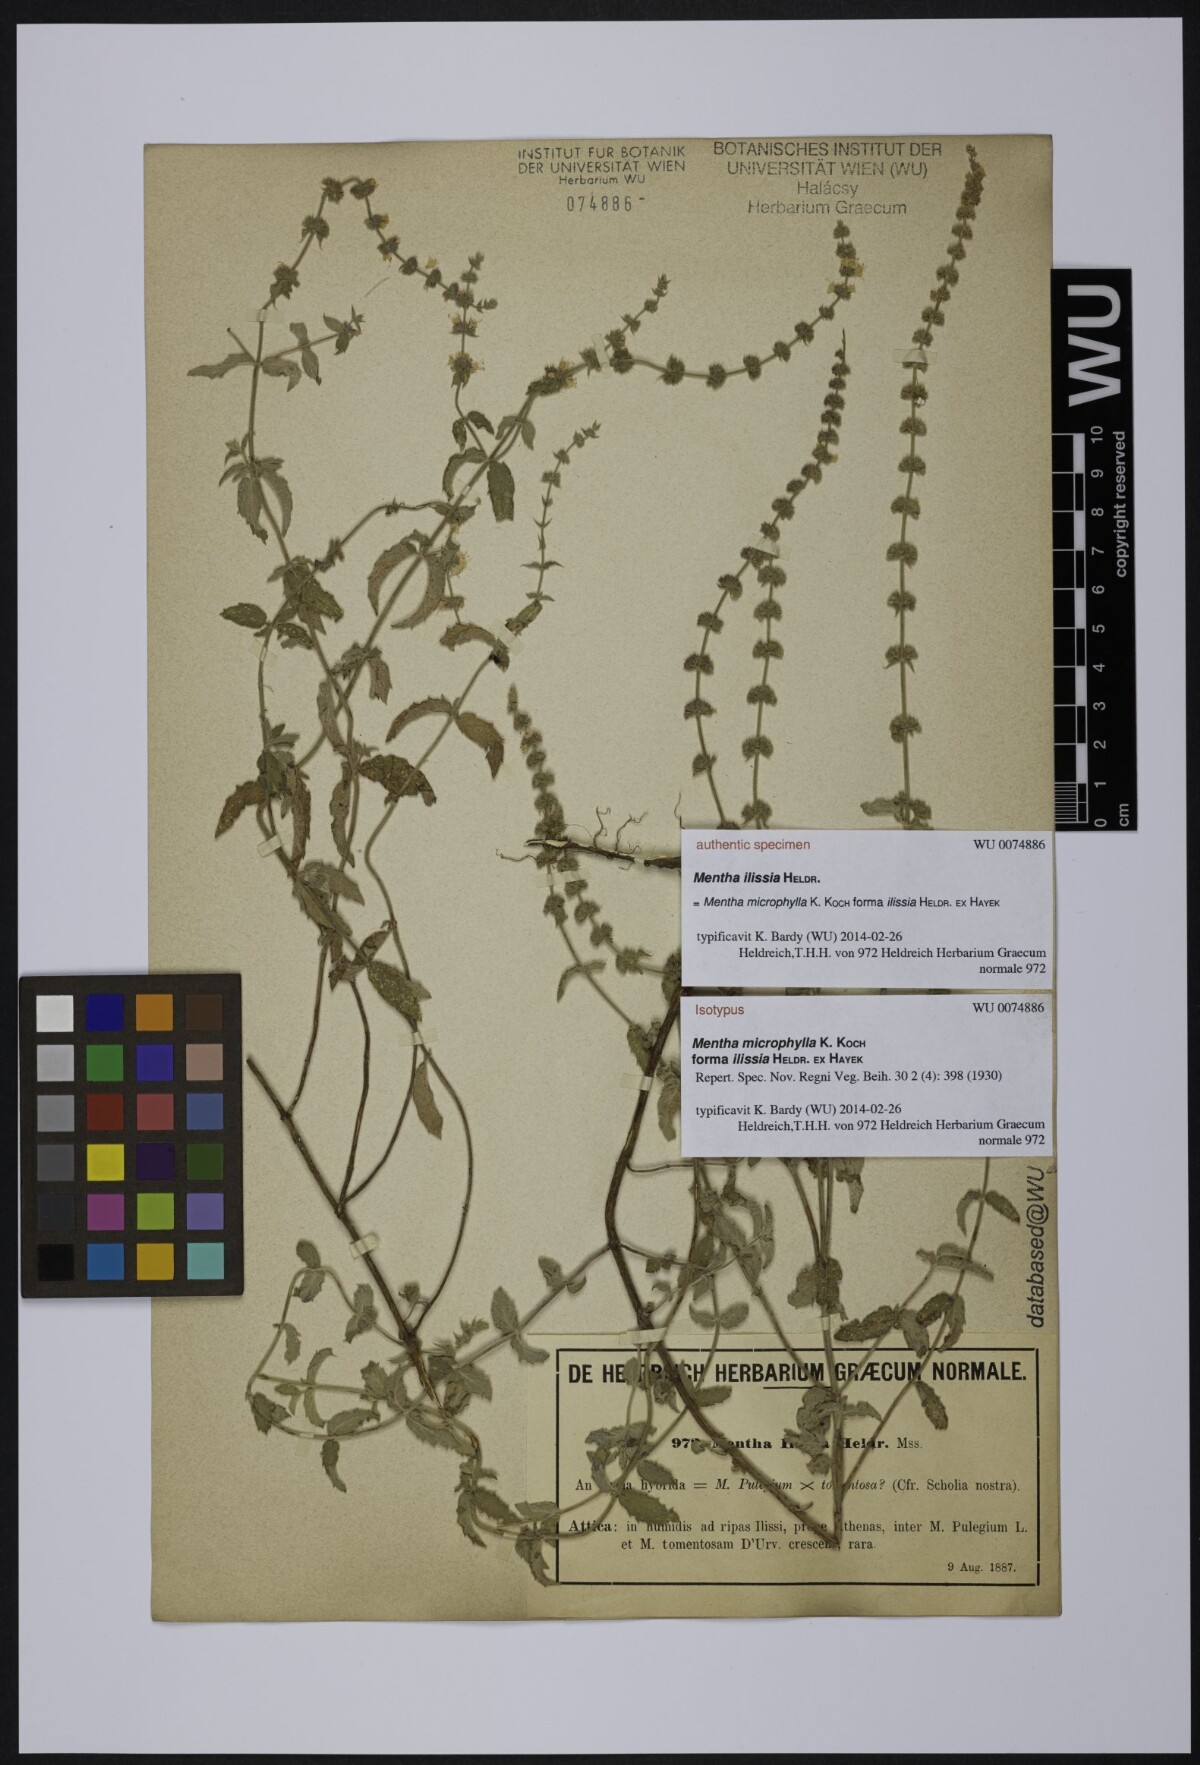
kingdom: Plantae
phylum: Tracheophyta
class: Magnoliopsida
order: Lamiales
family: Lamiaceae
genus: Mentha
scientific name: Mentha longifolia
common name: Horse mint
